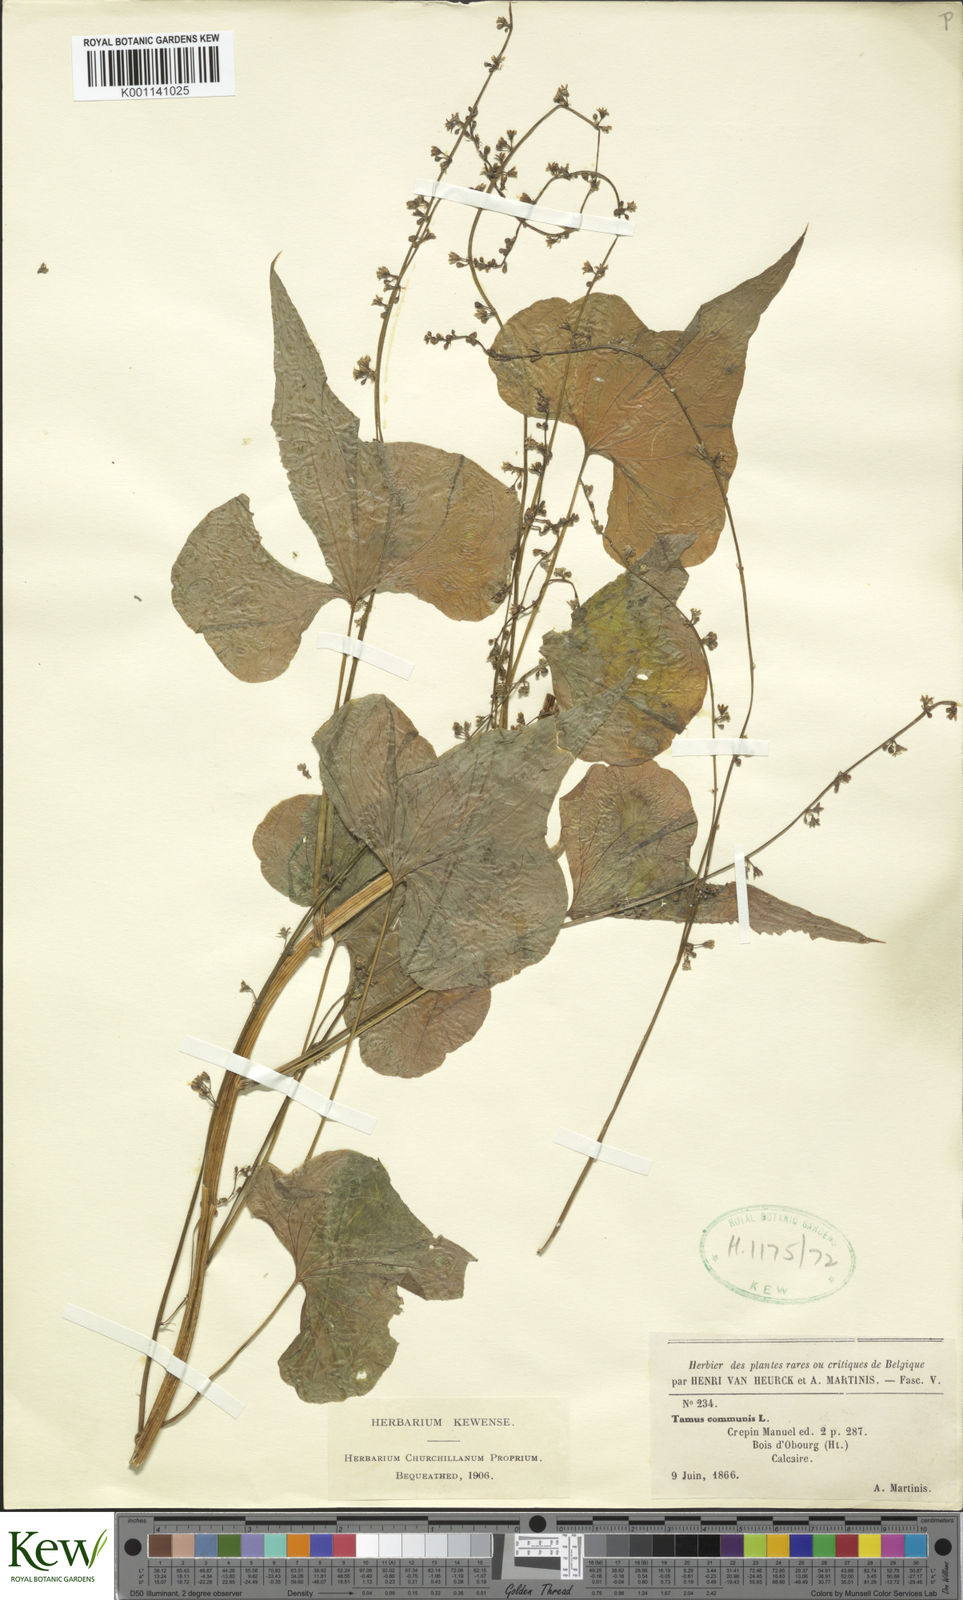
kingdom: Plantae
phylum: Tracheophyta
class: Liliopsida
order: Dioscoreales
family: Dioscoreaceae
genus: Dioscorea
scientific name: Dioscorea communis
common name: Black-bindweed
